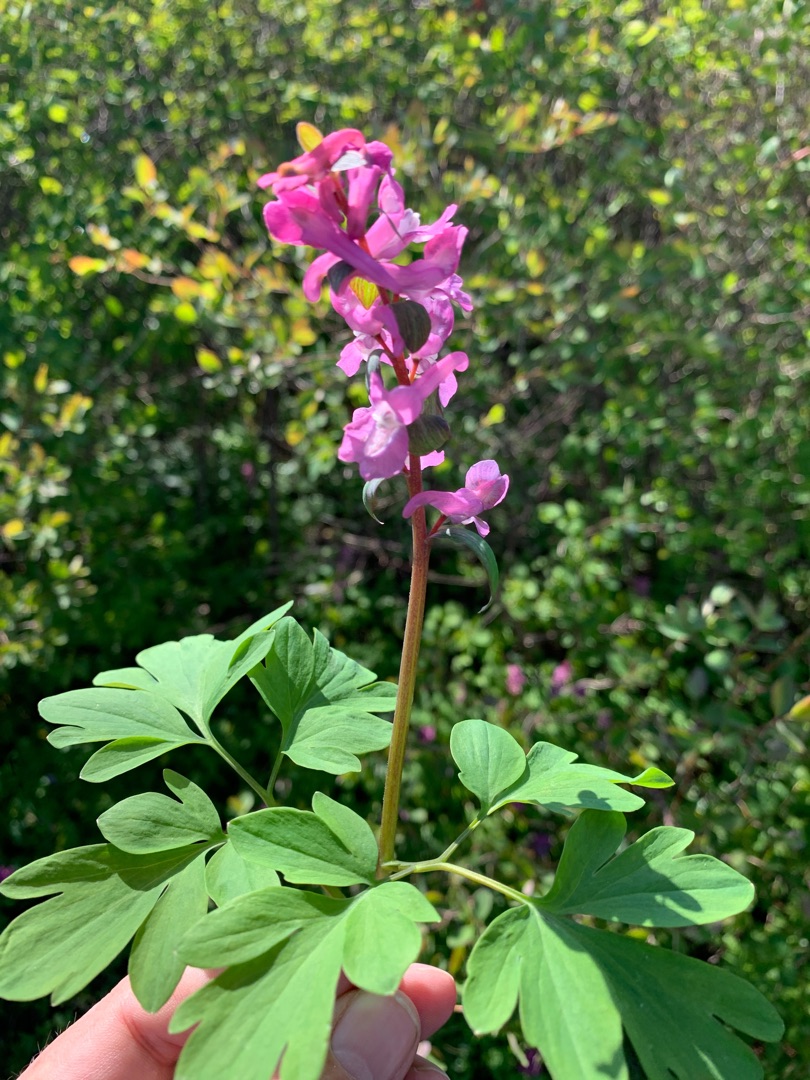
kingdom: Plantae
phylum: Tracheophyta
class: Magnoliopsida
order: Ranunculales
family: Papaveraceae
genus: Corydalis
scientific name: Corydalis cava
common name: Hulrodet lærkespore
